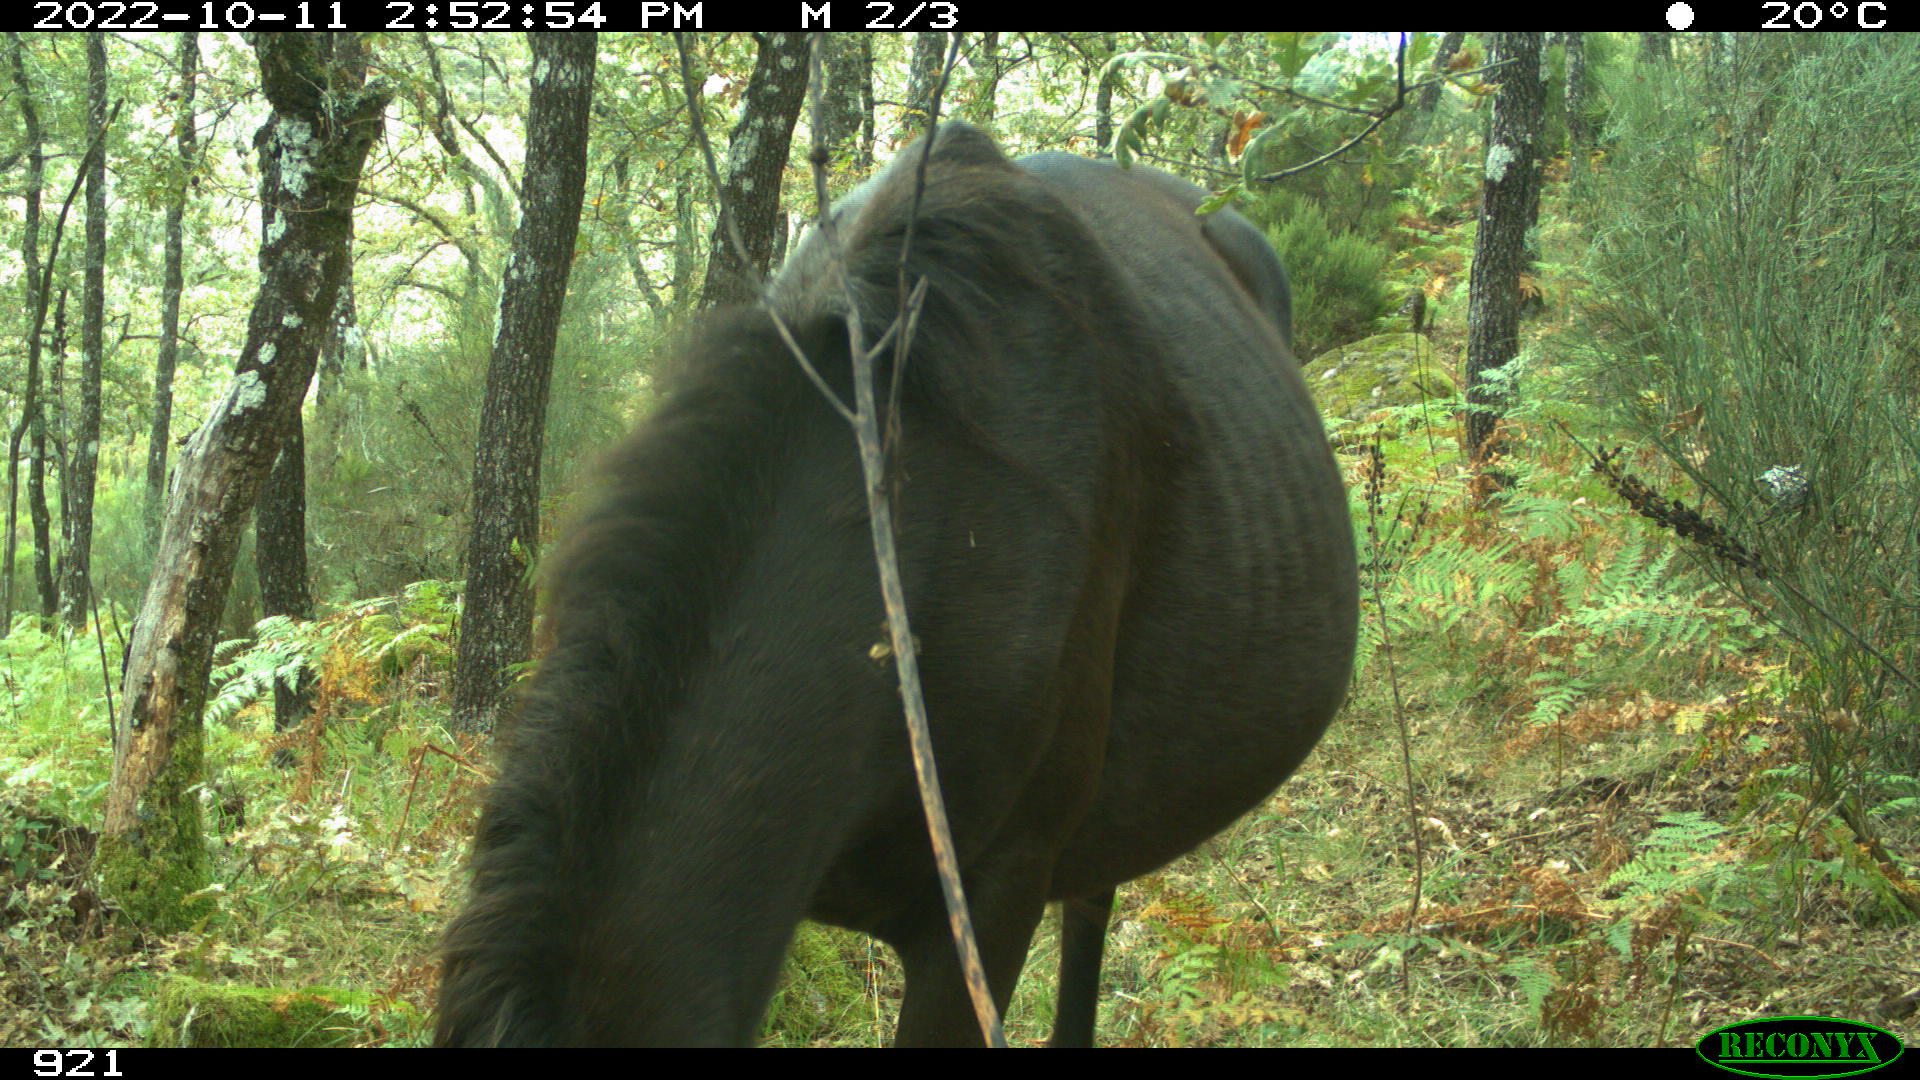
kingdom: Animalia
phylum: Chordata
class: Mammalia
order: Perissodactyla
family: Equidae
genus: Equus
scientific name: Equus caballus
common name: Horse
